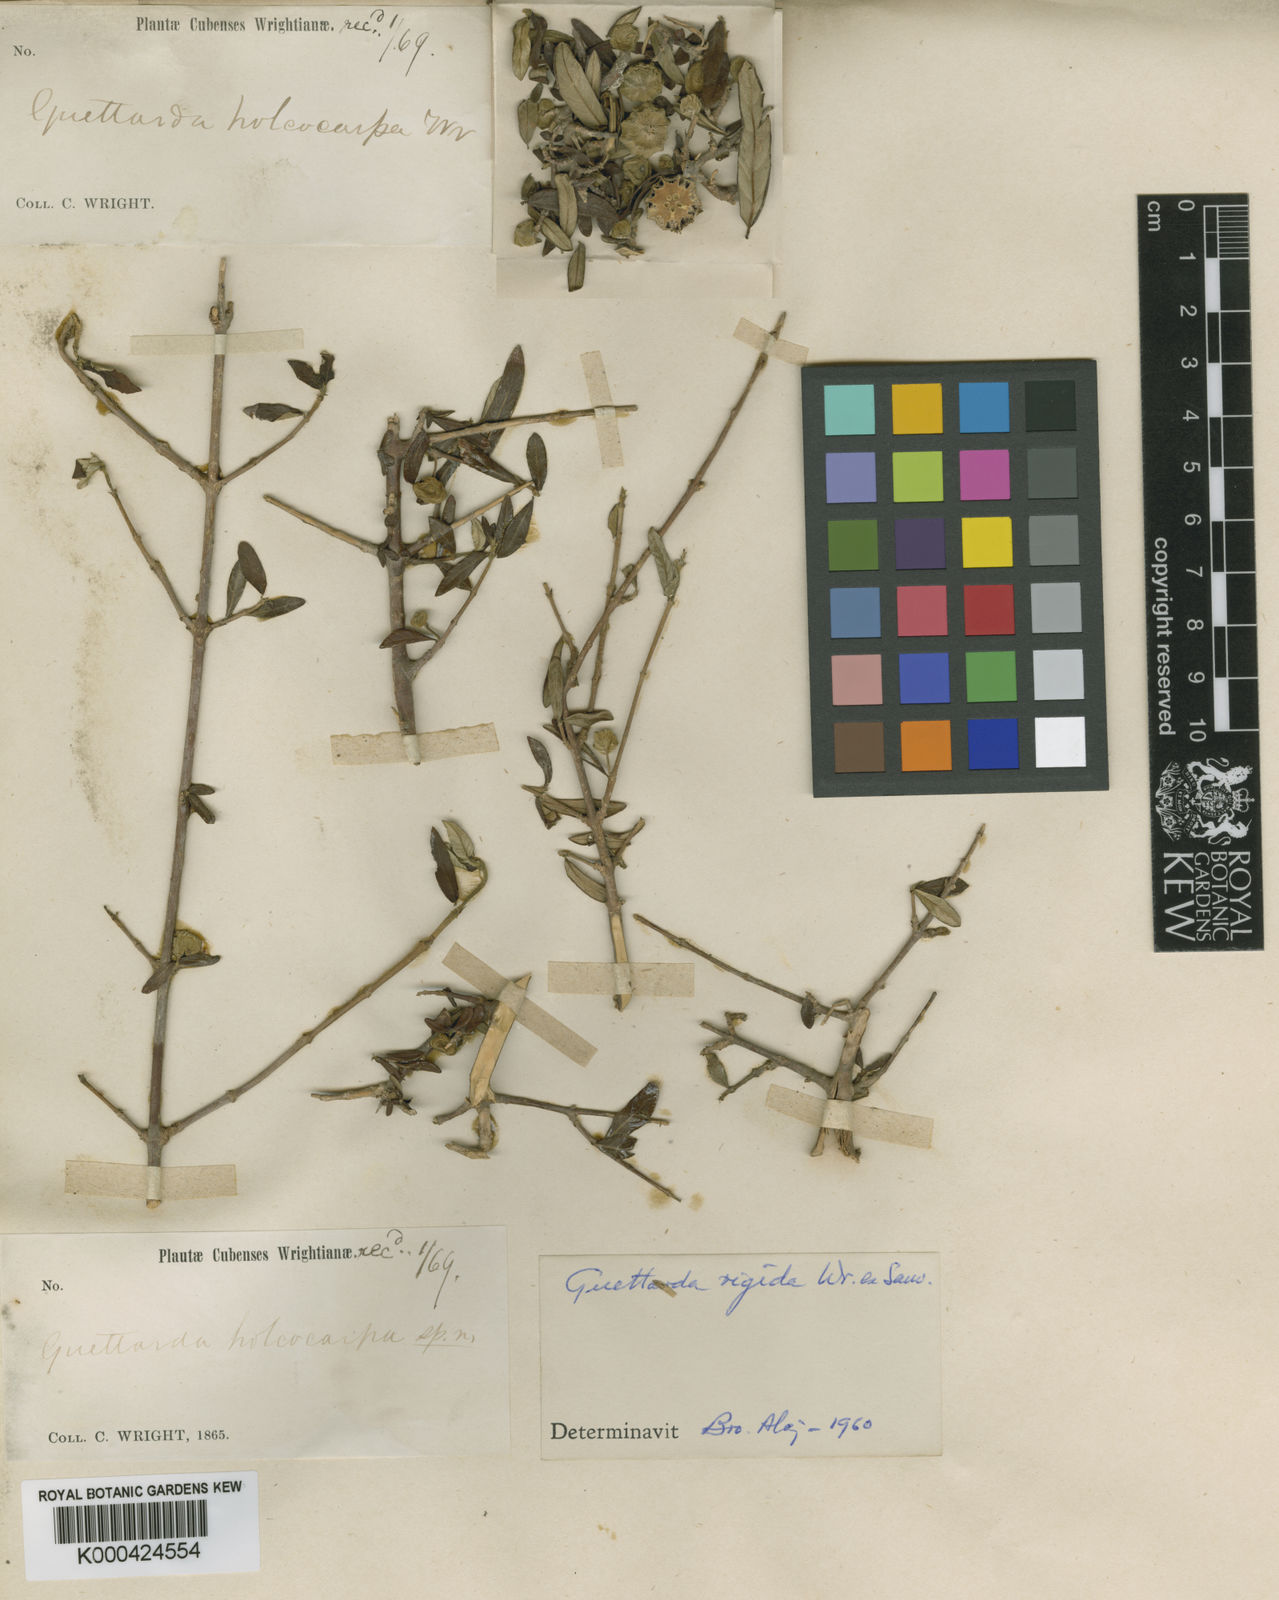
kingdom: Plantae
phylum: Tracheophyta
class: Magnoliopsida
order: Gentianales
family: Rubiaceae
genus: Guettarda
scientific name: Guettarda
